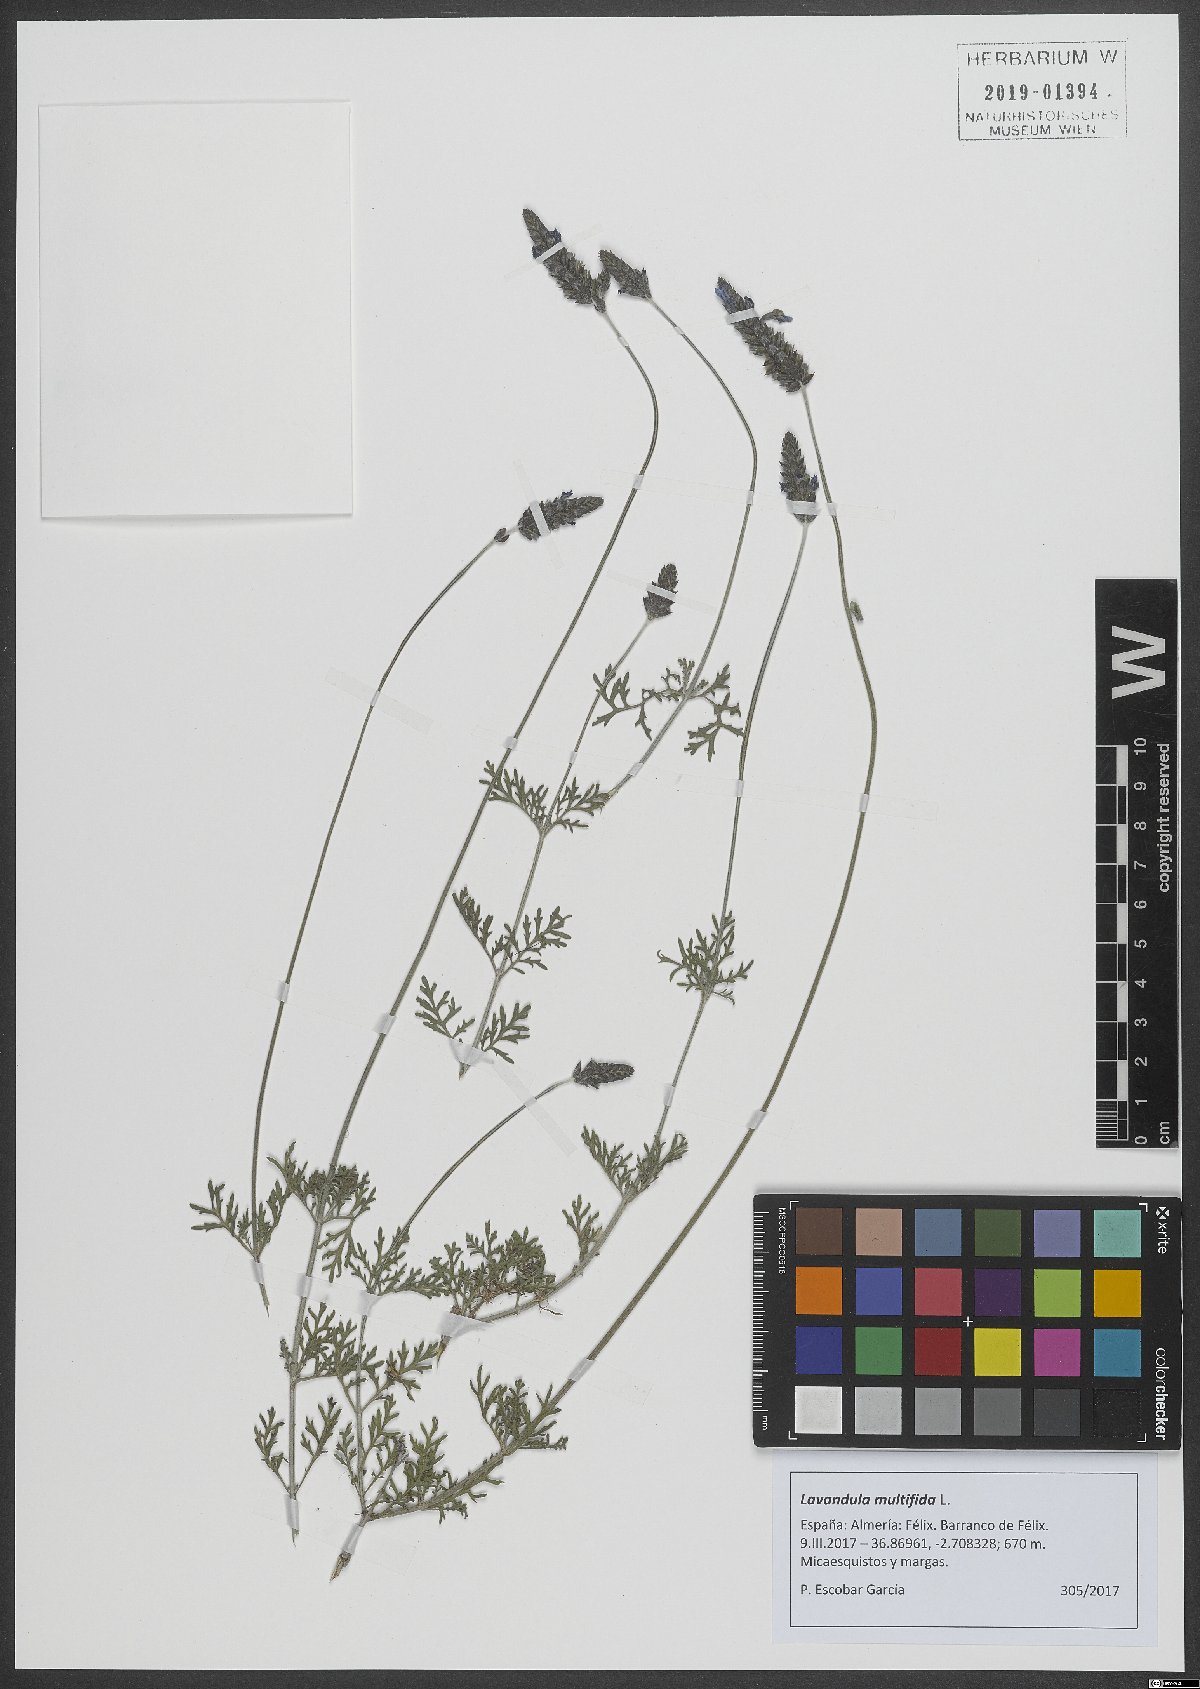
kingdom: Plantae
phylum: Tracheophyta
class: Magnoliopsida
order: Lamiales
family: Lamiaceae
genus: Lavandula
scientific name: Lavandula multifida
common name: Fern-leaf lavender
